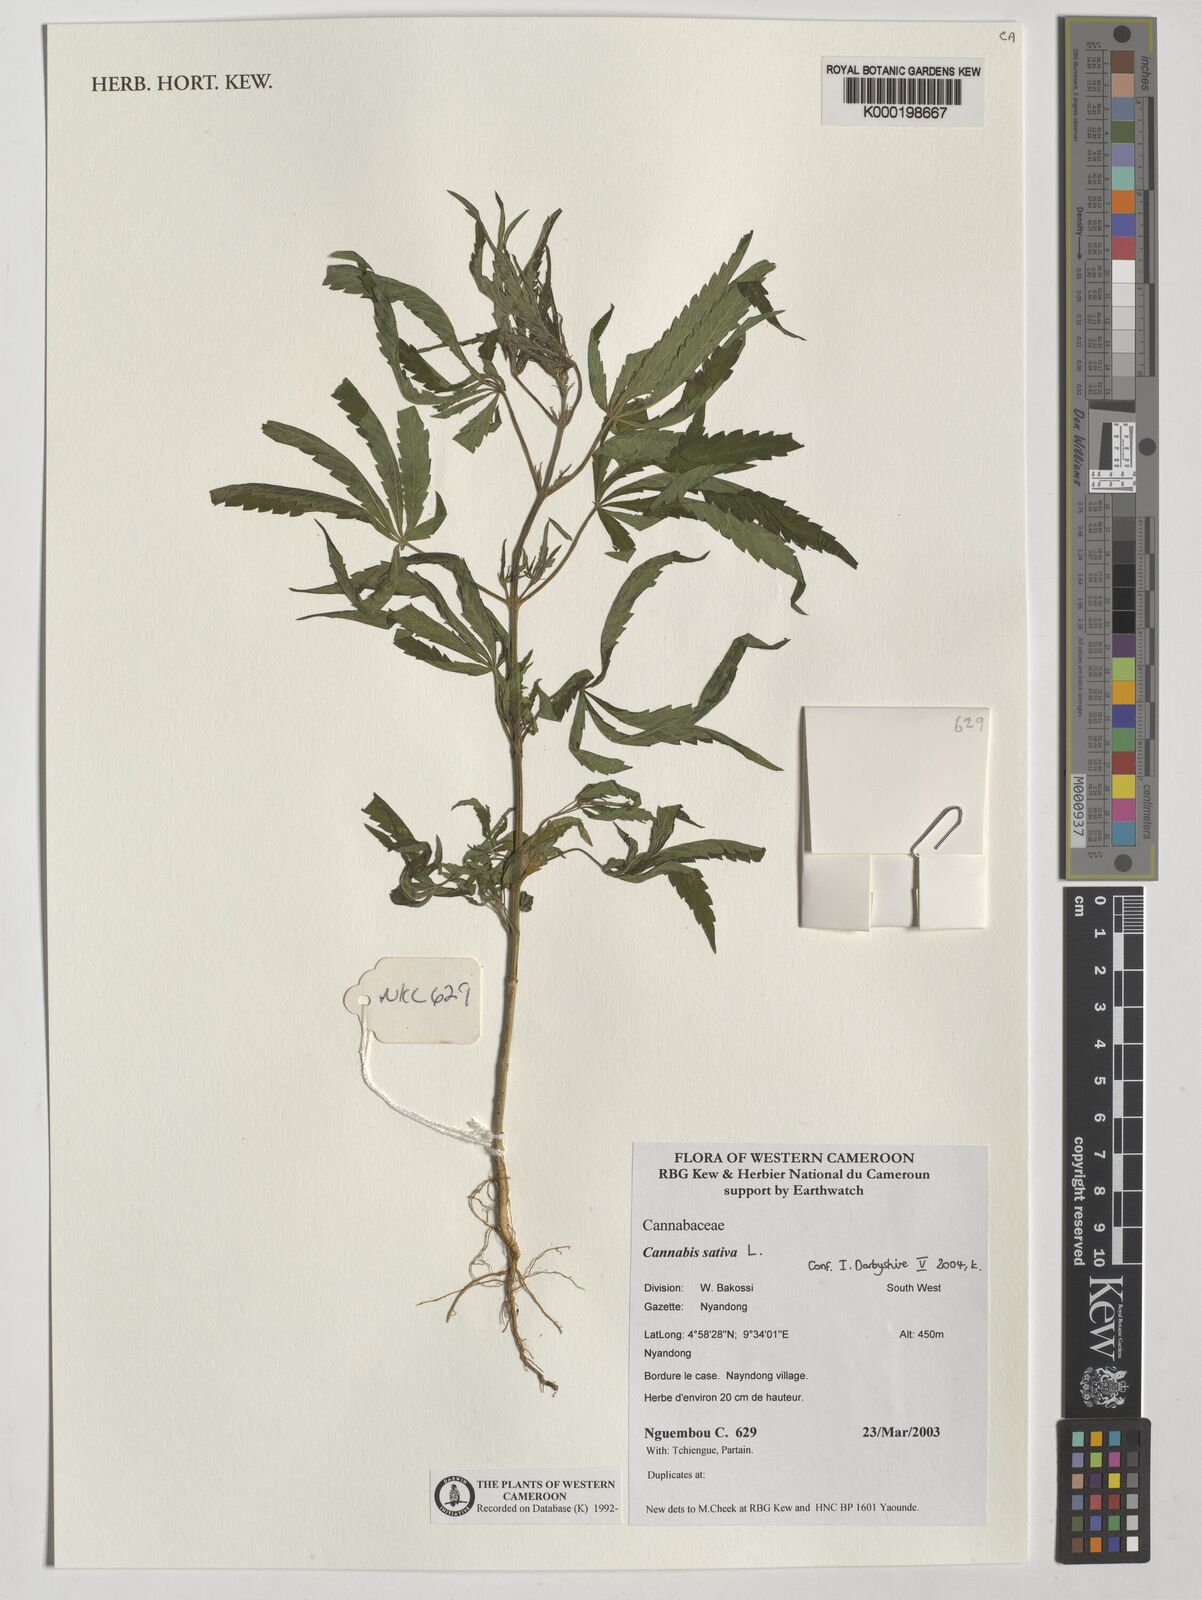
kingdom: Plantae
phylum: Tracheophyta
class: Magnoliopsida
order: Rosales
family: Cannabaceae
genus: Cannabis
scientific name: Cannabis sativa
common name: Hemp
